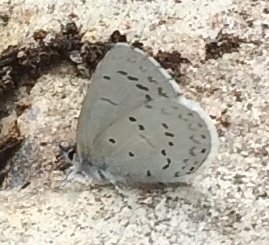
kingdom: Animalia
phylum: Arthropoda
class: Insecta
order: Lepidoptera
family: Lycaenidae
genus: Celastrina
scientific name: Celastrina ladon
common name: Echo Azure
